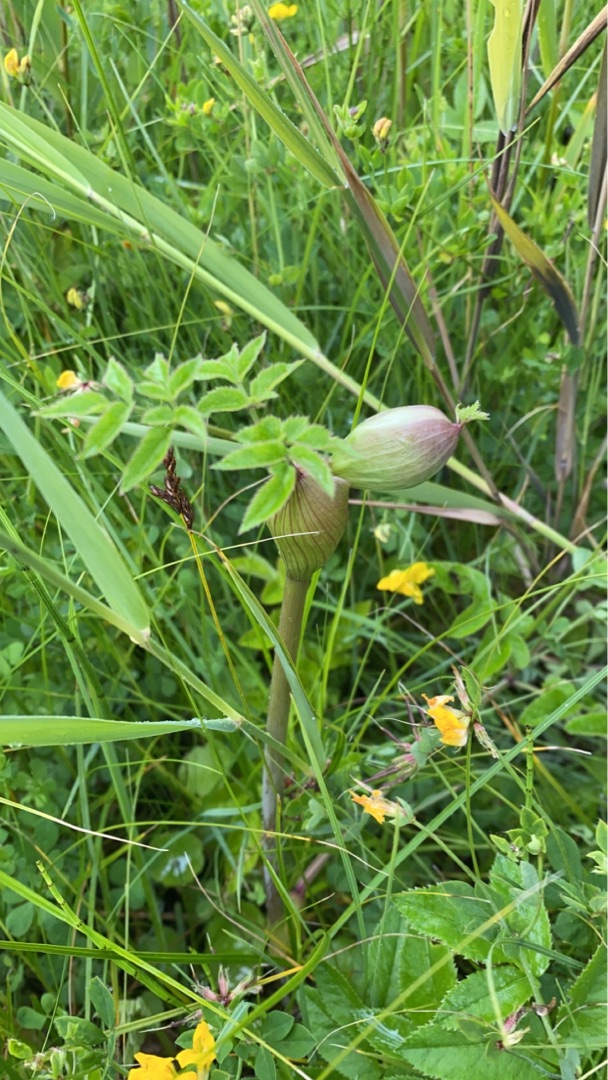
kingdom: Plantae
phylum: Tracheophyta
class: Magnoliopsida
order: Apiales
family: Apiaceae
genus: Angelica
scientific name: Angelica sylvestris
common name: Angelik
